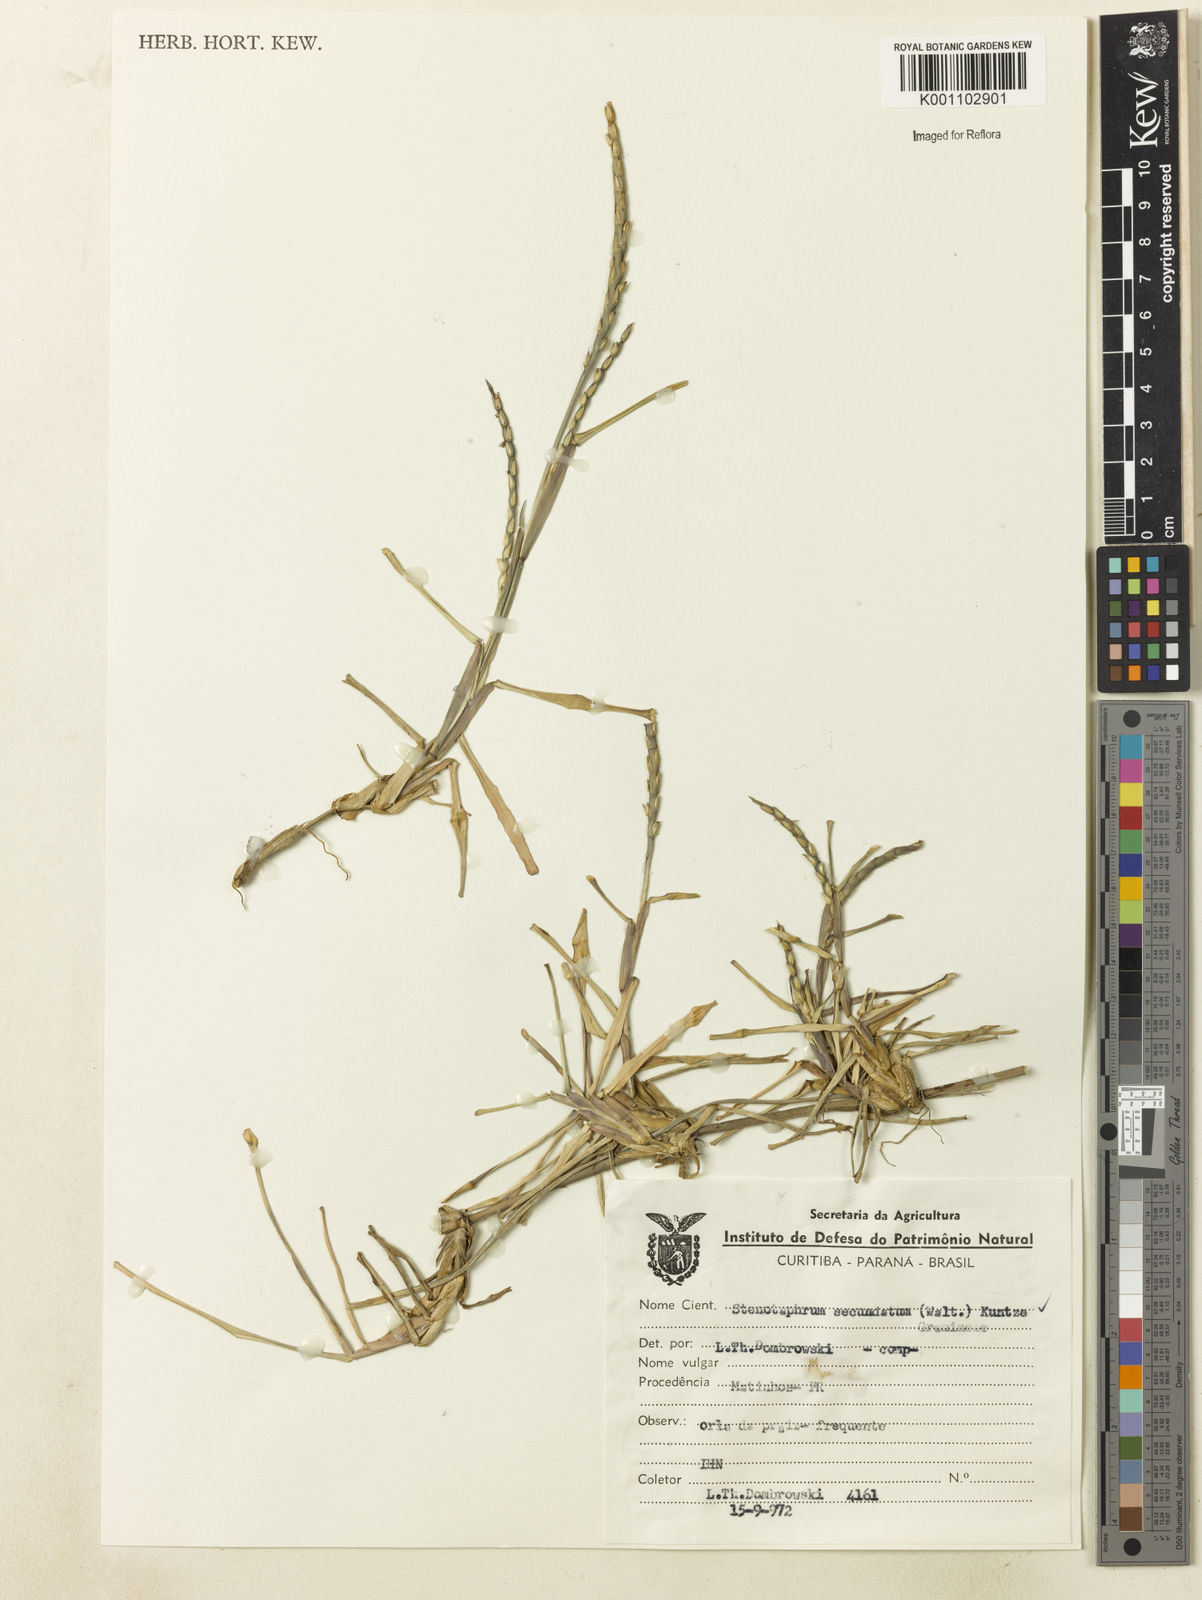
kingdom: Plantae
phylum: Tracheophyta
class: Liliopsida
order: Poales
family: Poaceae
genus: Stenotaphrum
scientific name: Stenotaphrum secundatum
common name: St. augustine grass
